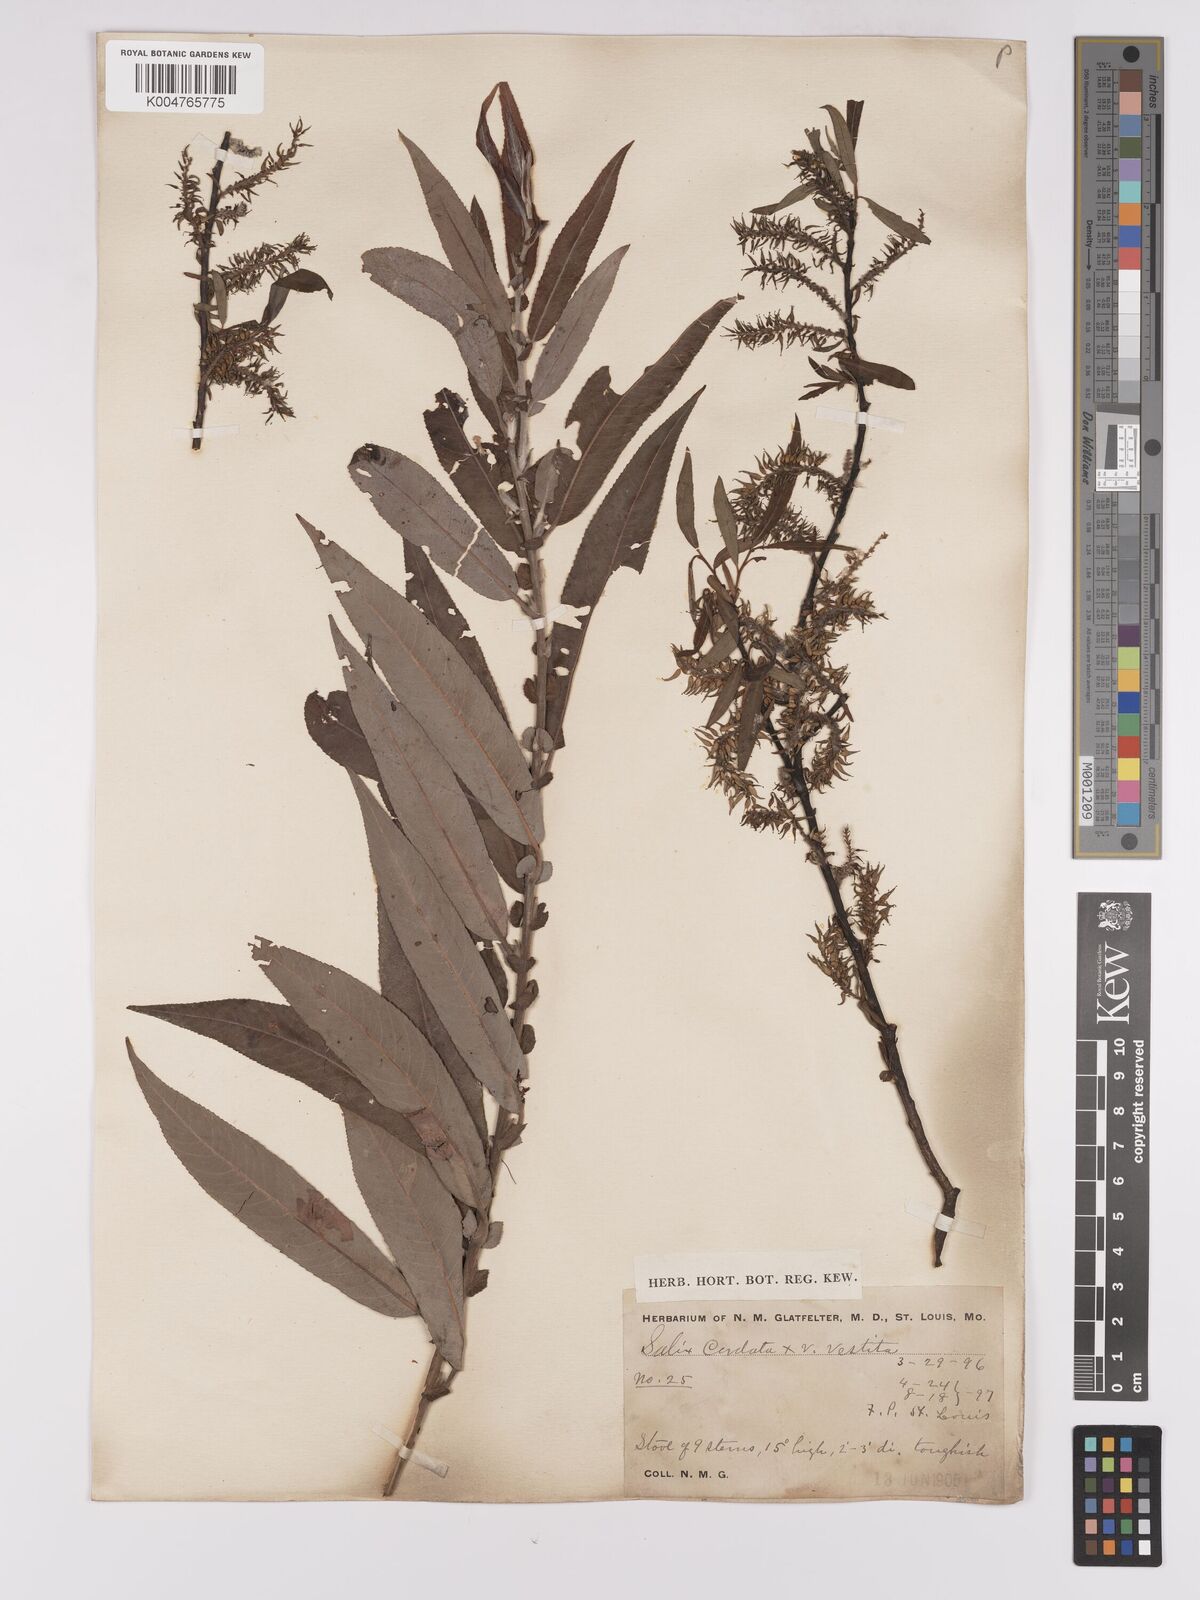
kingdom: Plantae
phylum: Tracheophyta
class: Magnoliopsida
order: Malpighiales
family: Salicaceae
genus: Salix
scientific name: Salix cordata
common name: Heart-leaf willow
